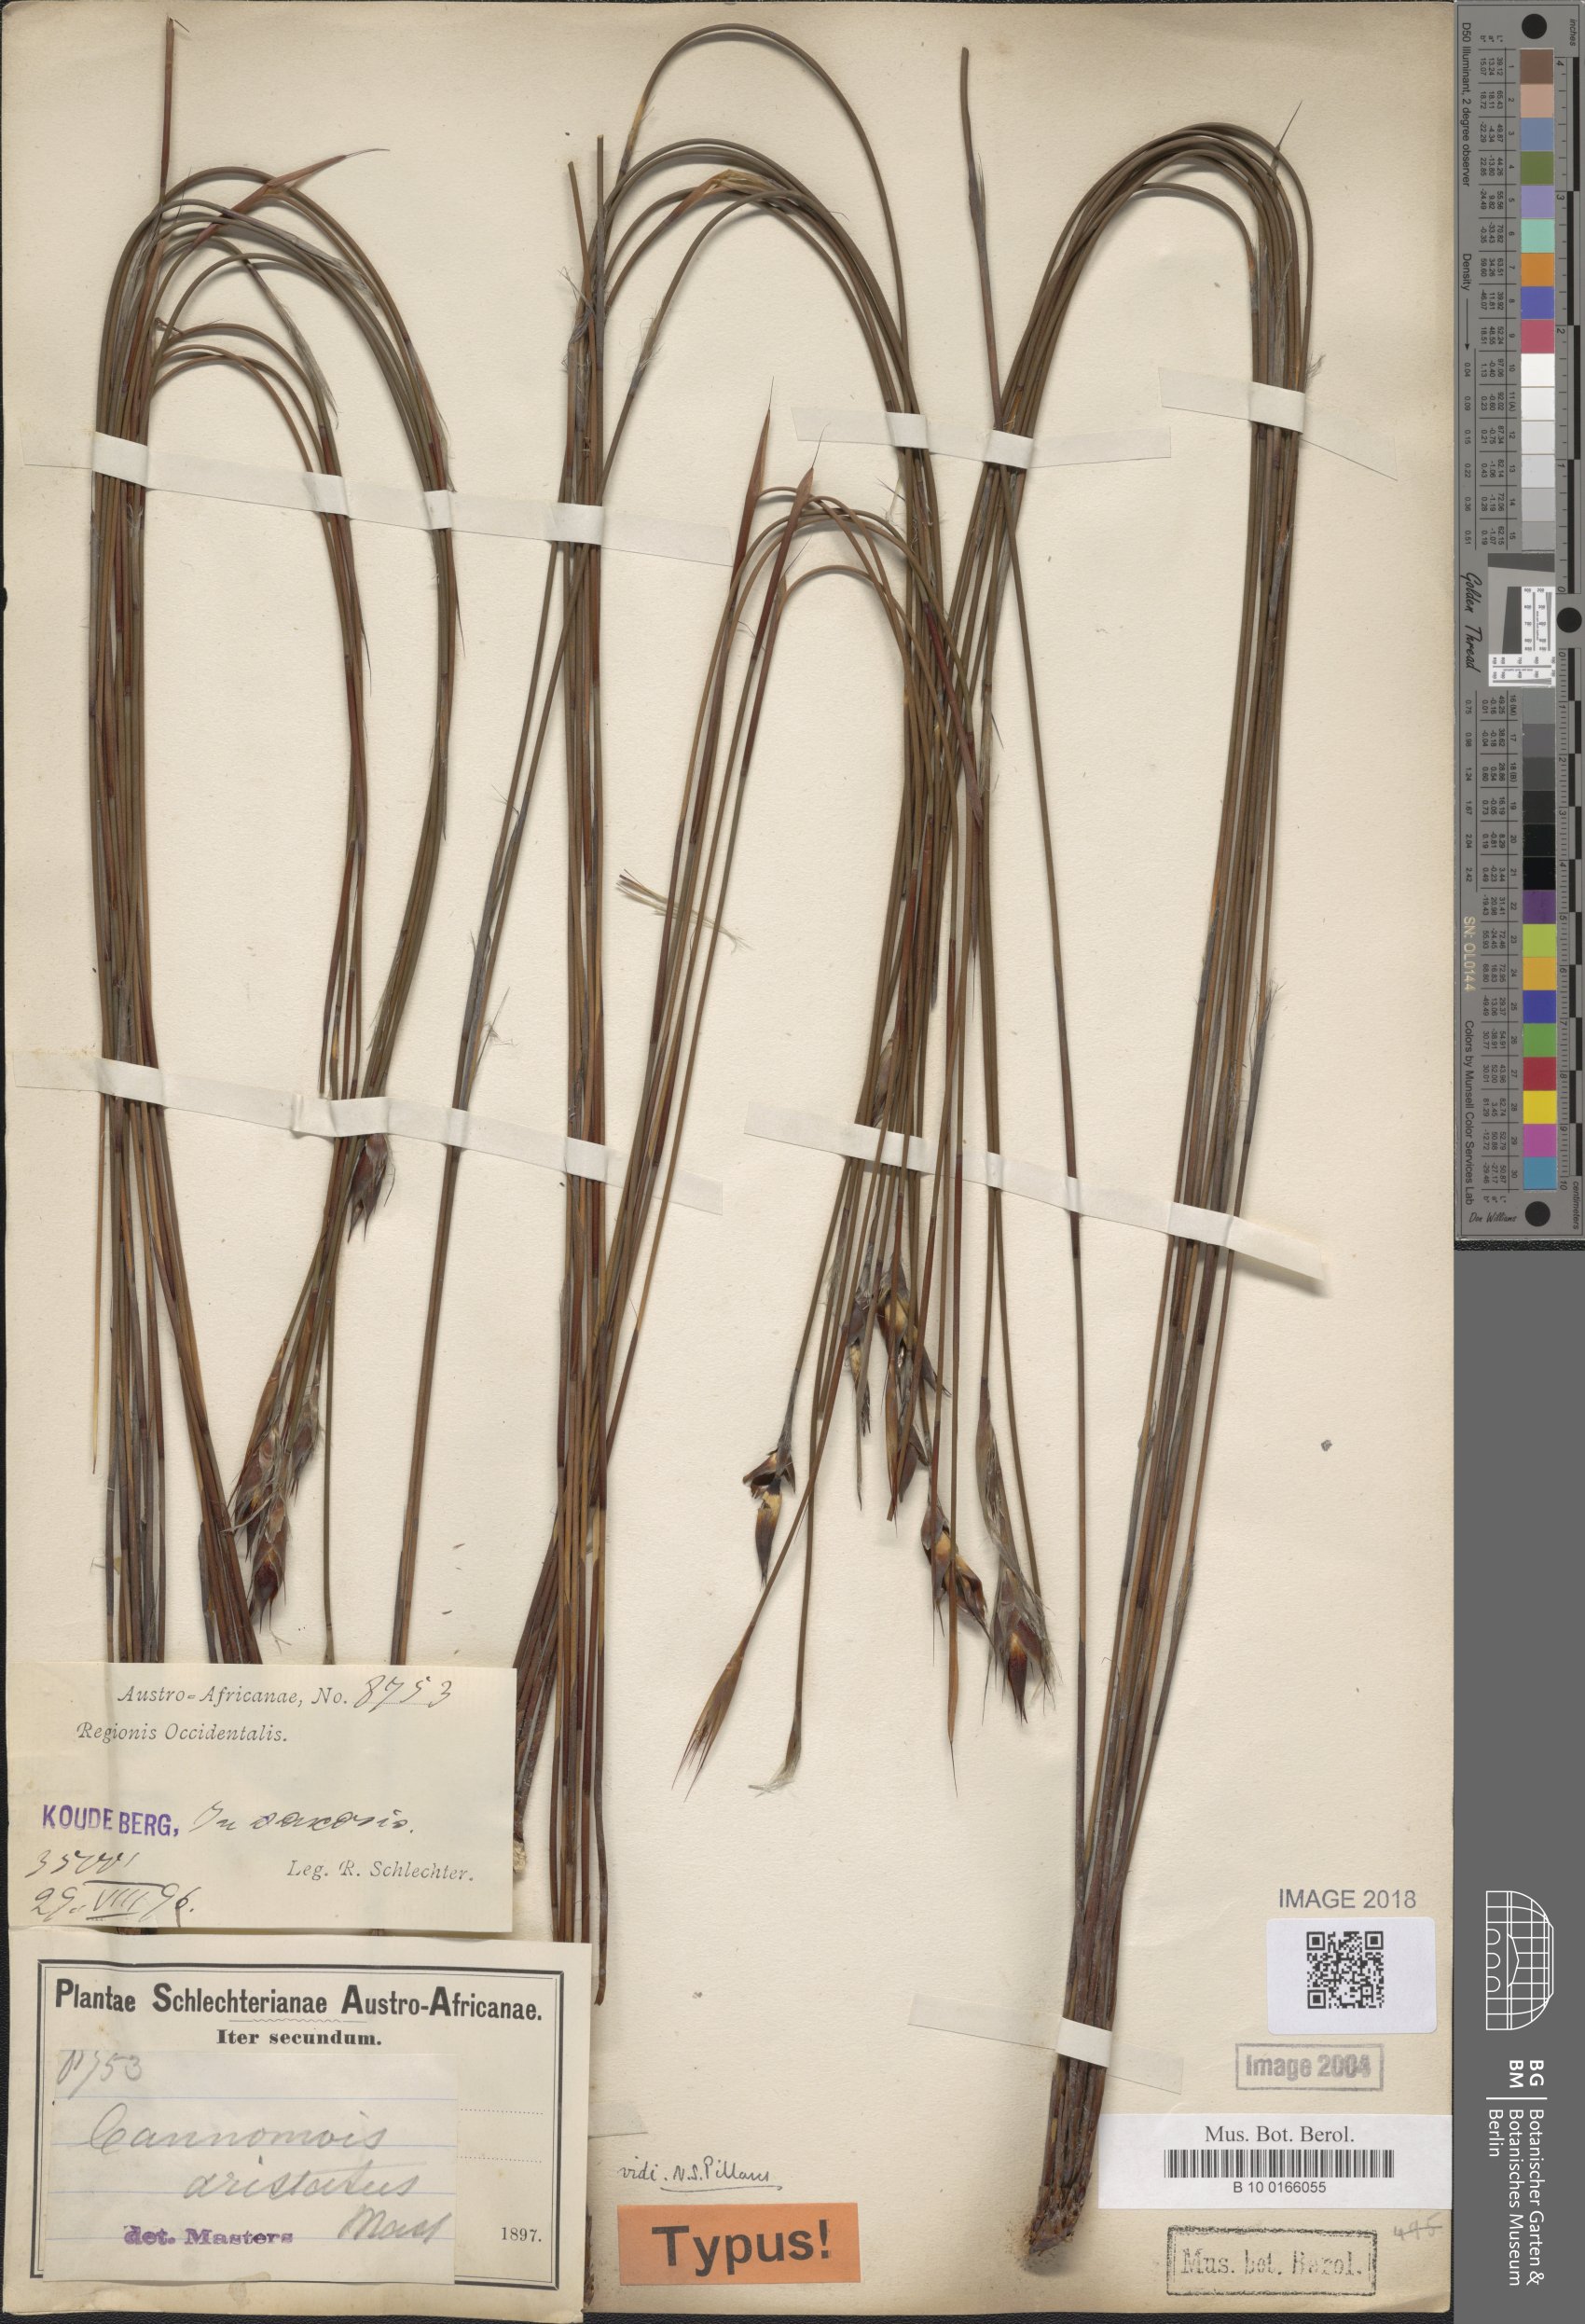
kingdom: Plantae
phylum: Tracheophyta
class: Liliopsida
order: Poales
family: Restionaceae
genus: Cannomois
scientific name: Cannomois aristata
